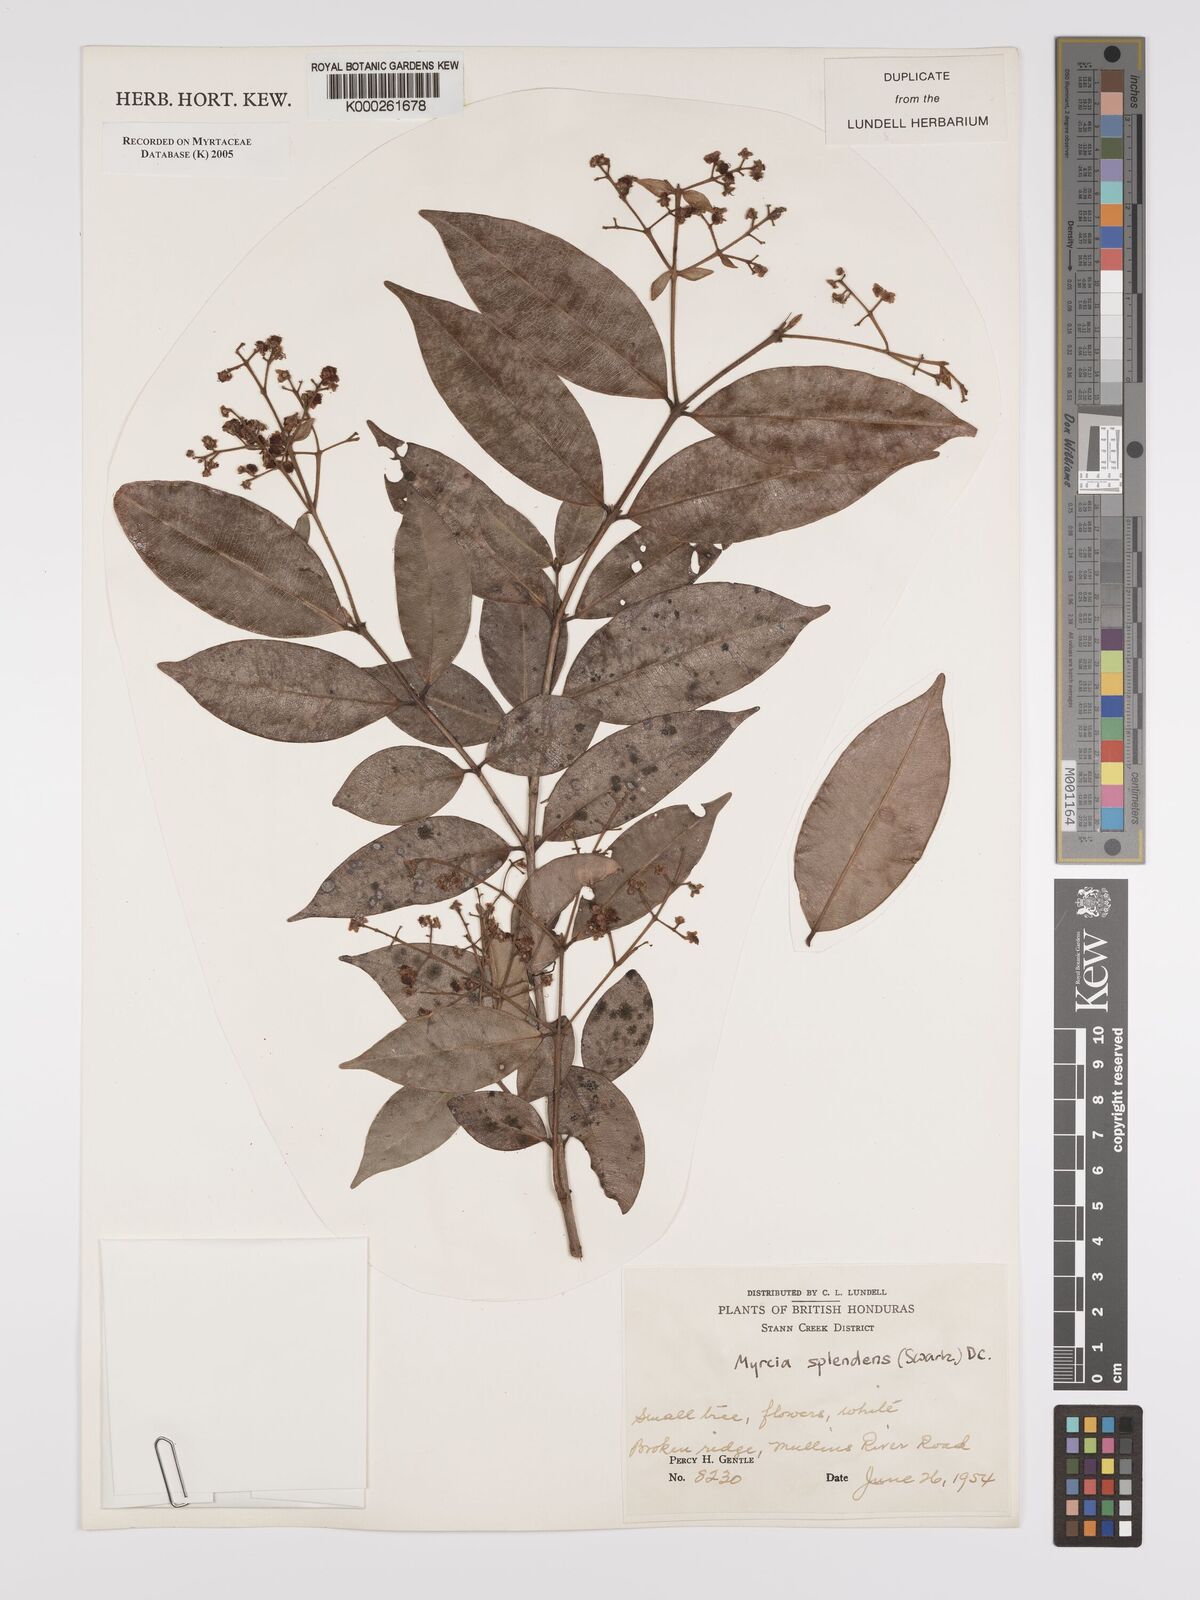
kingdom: Plantae
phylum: Tracheophyta
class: Magnoliopsida
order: Myrtales
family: Myrtaceae
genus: Myrcia
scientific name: Myrcia splendens
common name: Surinam cherry
